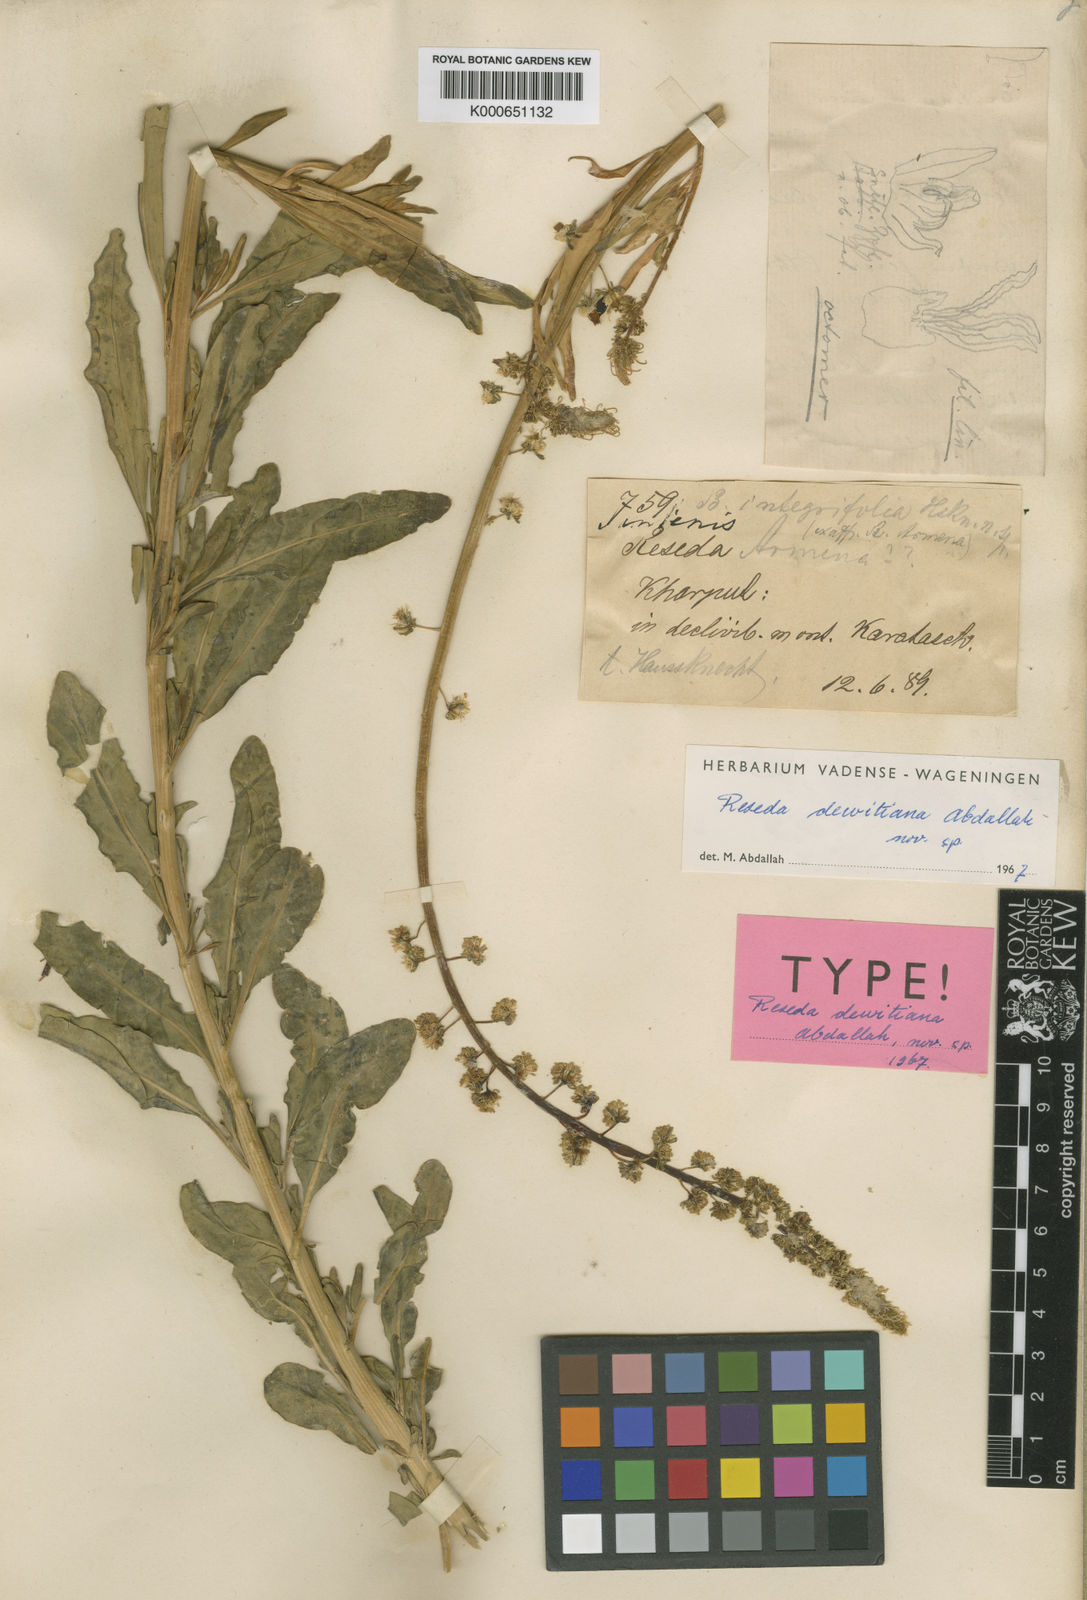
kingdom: Plantae
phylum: Tracheophyta
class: Magnoliopsida
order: Brassicales
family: Resedaceae
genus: Reseda
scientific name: Reseda saadae
